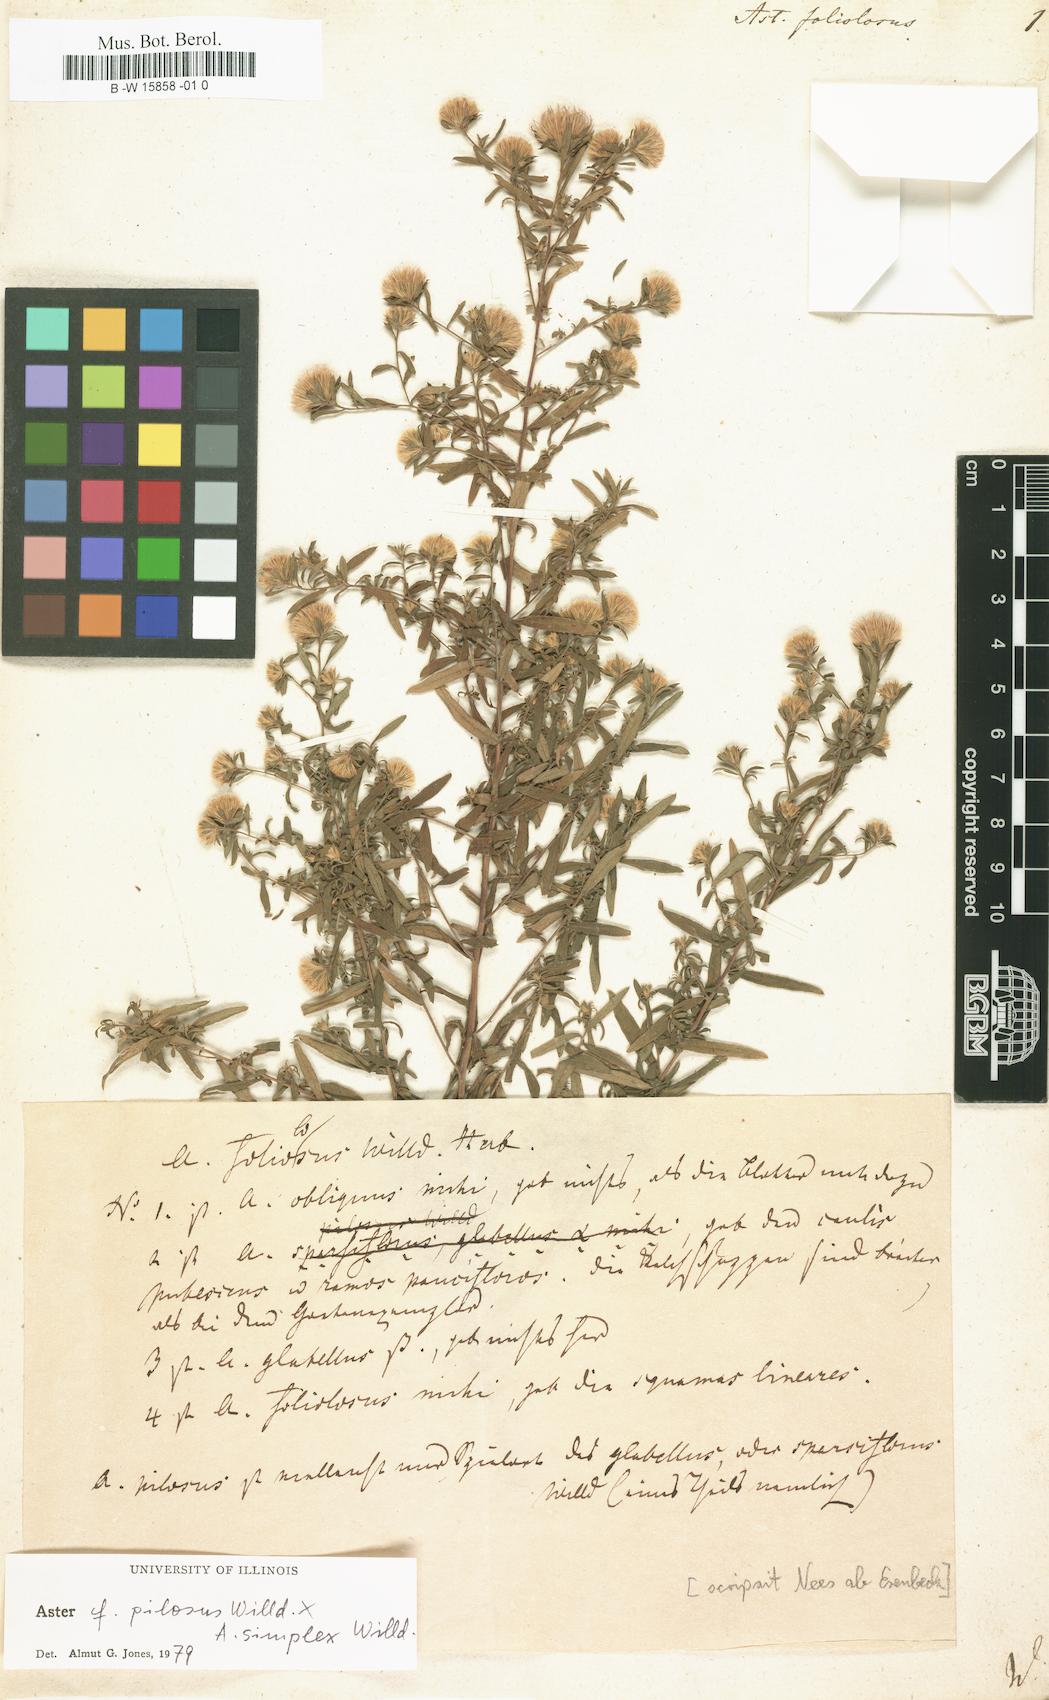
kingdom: Plantae
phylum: Tracheophyta
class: Magnoliopsida
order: Asterales
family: Asteraceae
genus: Symphyotrichum
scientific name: Symphyotrichum racemosum
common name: Small white aster
